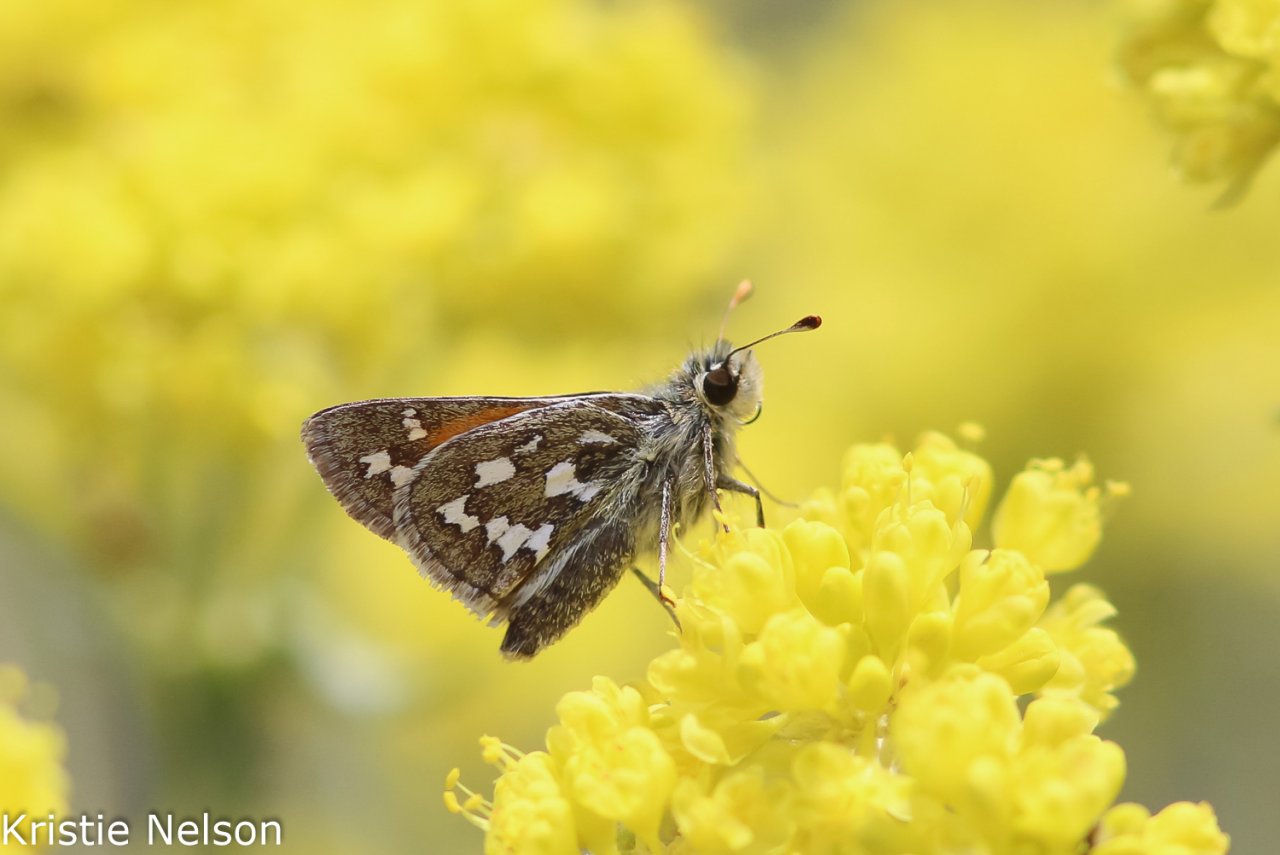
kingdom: Animalia
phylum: Arthropoda
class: Insecta
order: Lepidoptera
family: Hesperiidae
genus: Hesperia
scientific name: Hesperia uncas
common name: Uncas Skipper
